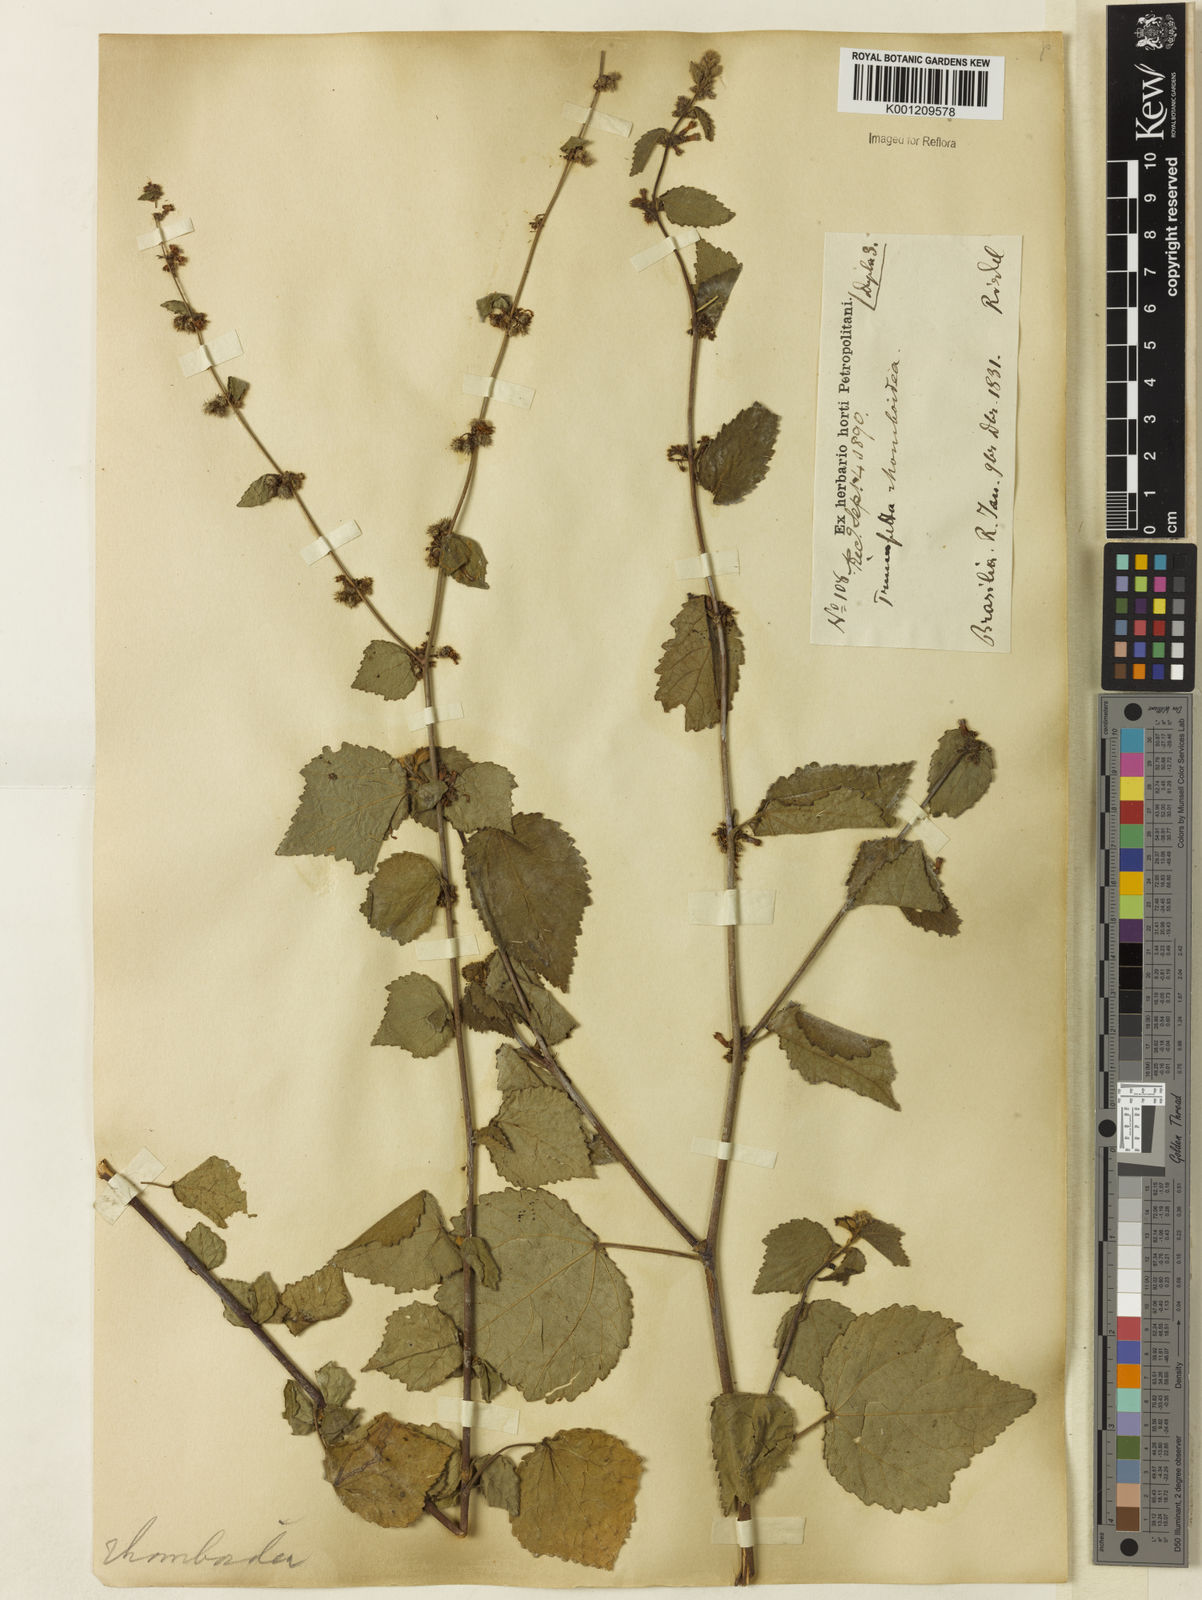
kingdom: Plantae
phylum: Tracheophyta
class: Magnoliopsida
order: Malvales
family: Malvaceae
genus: Triumfetta
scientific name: Triumfetta rhomboidea
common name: Diamond burbark
